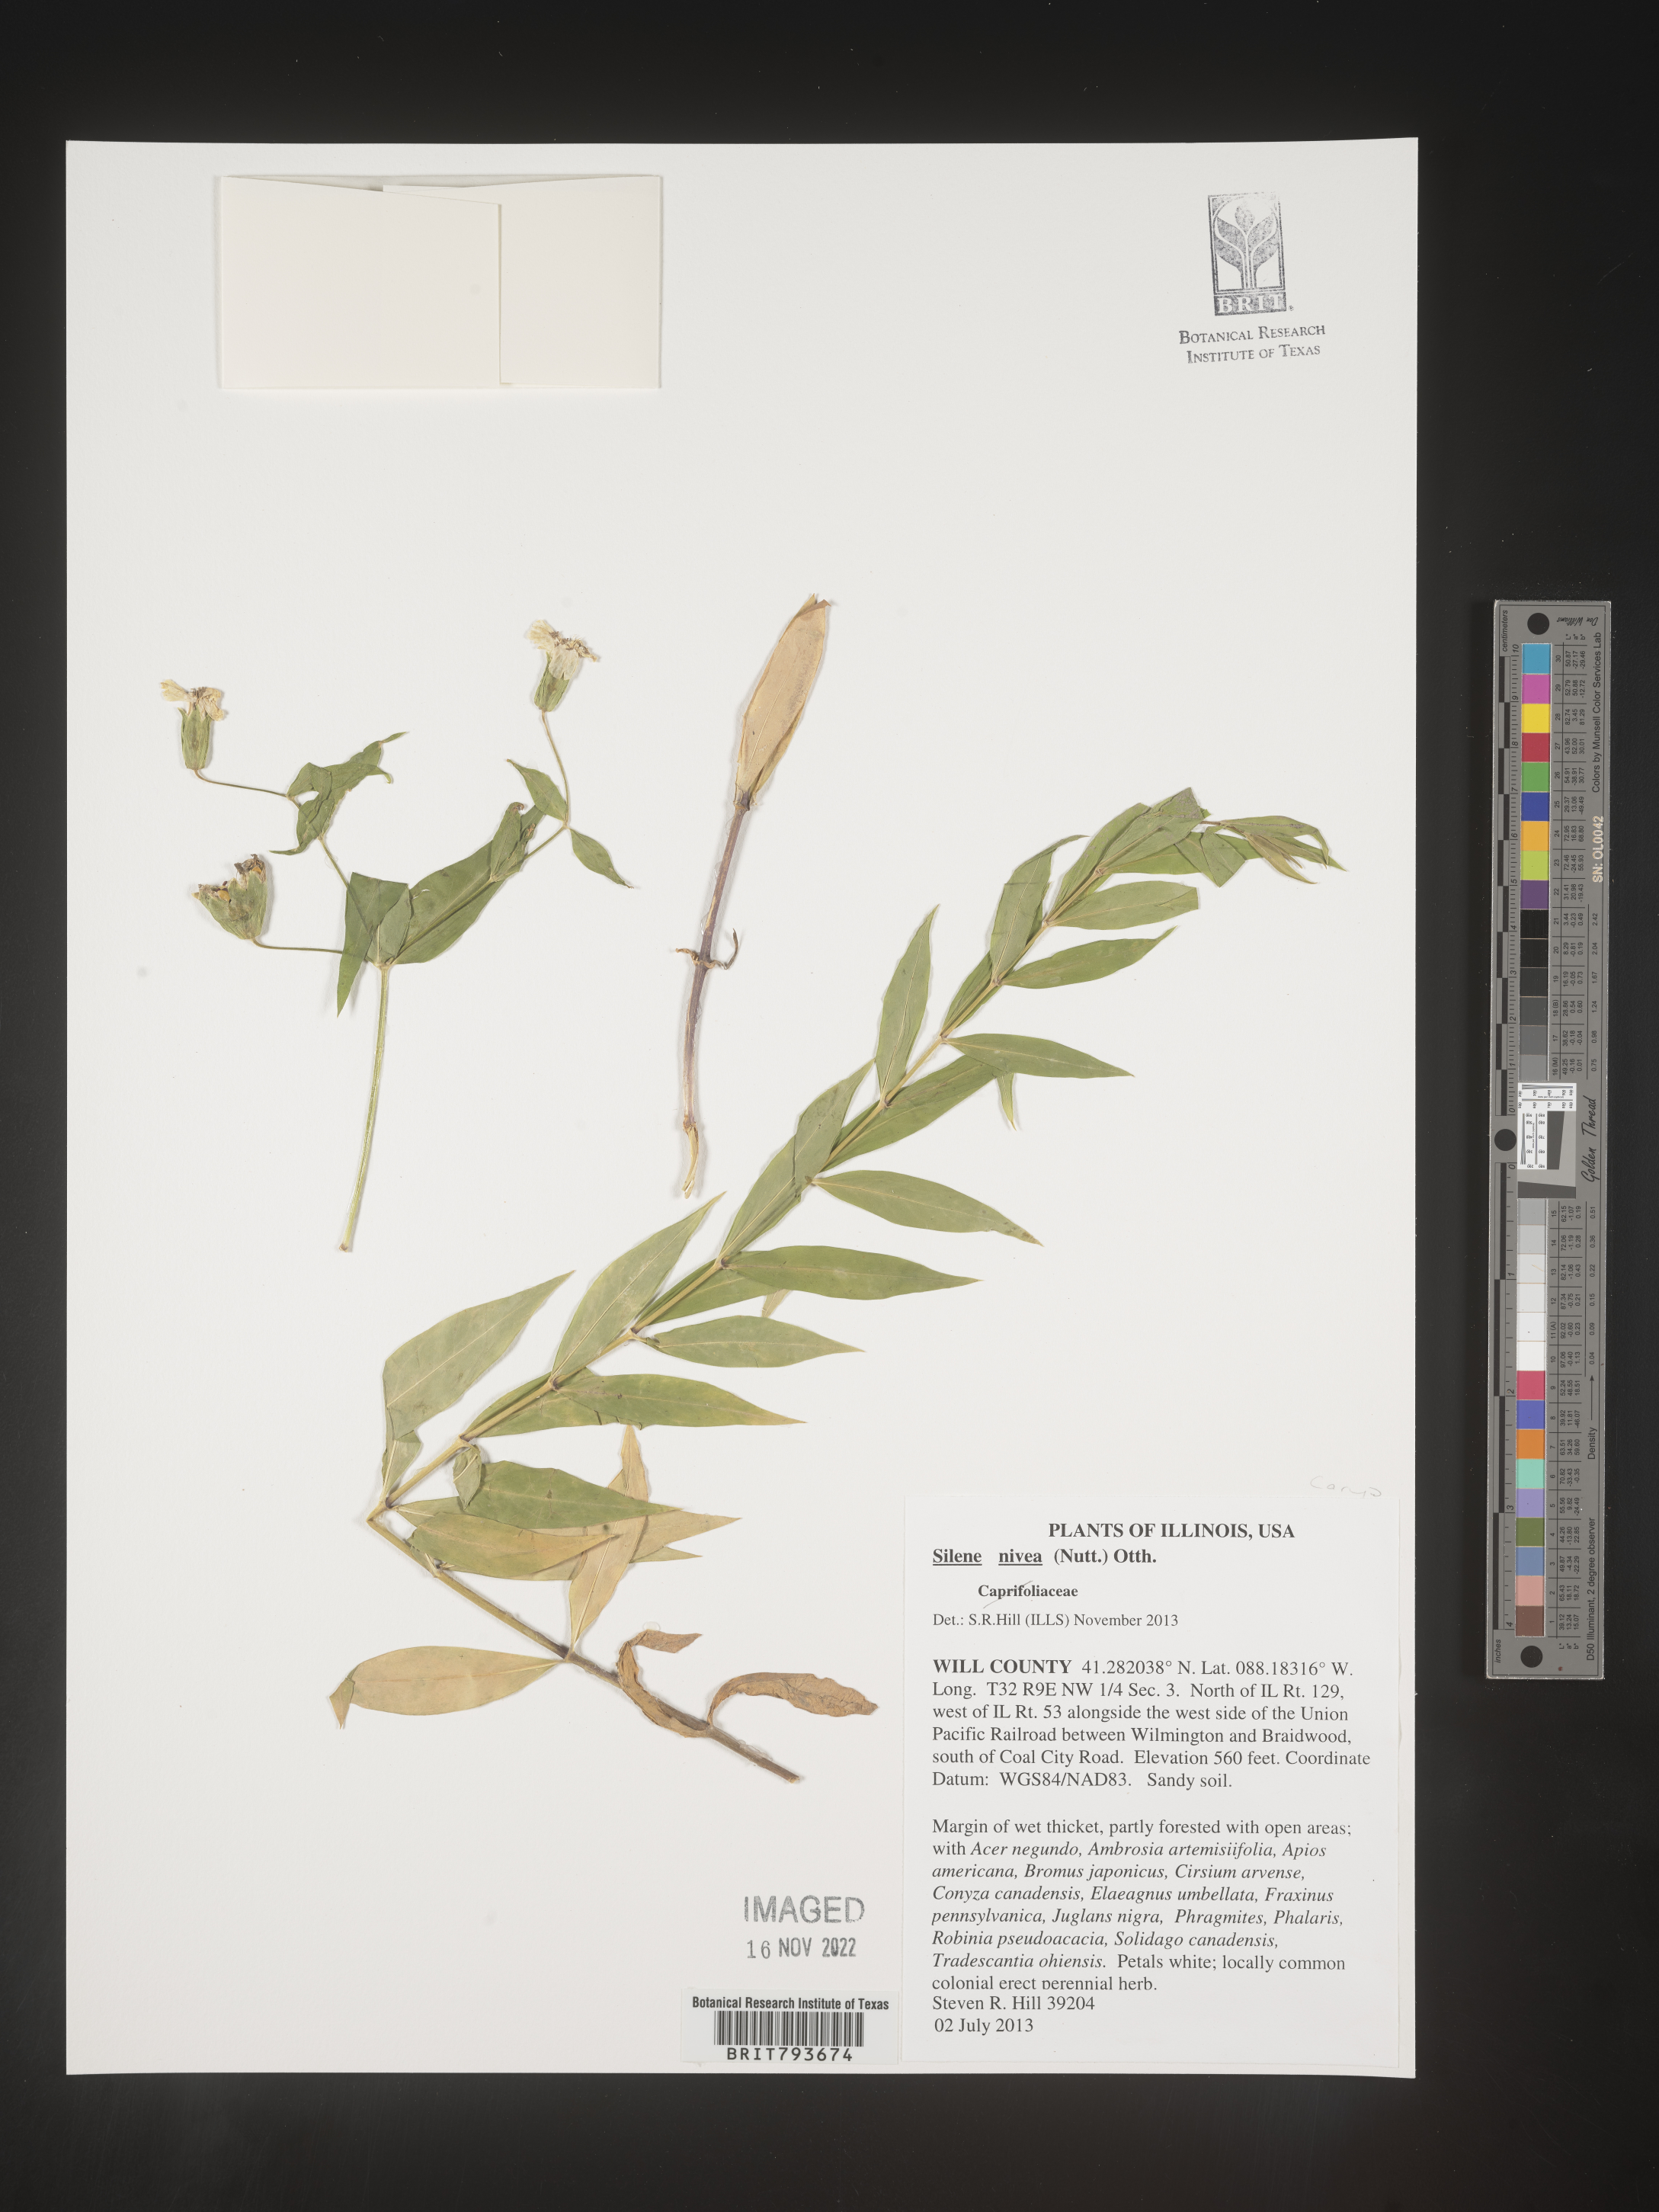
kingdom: Plantae
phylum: Tracheophyta
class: Magnoliopsida
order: Caryophyllales
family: Caryophyllaceae
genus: Silene
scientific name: Silene nivea
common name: Snowy campion
